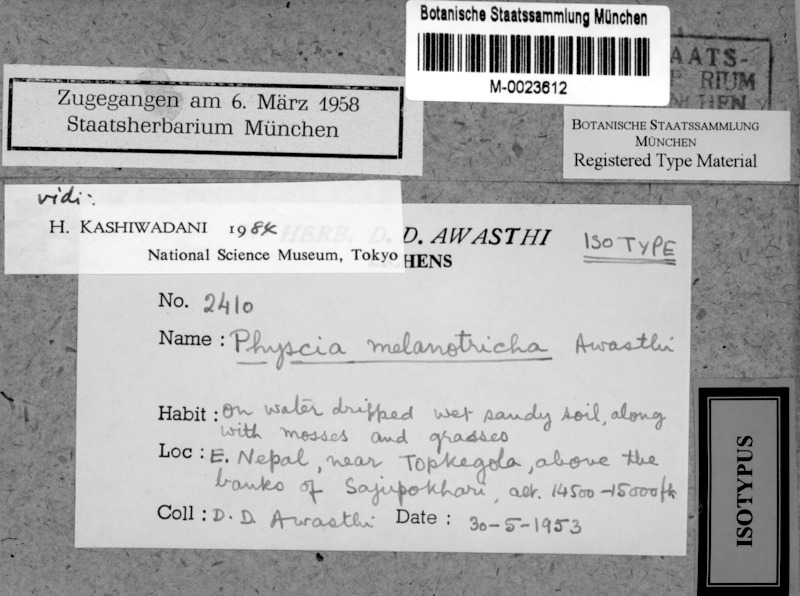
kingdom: Fungi
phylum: Ascomycota
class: Lecanoromycetes
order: Caliciales
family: Physciaceae
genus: Awasthia
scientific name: Awasthia melanotricha
